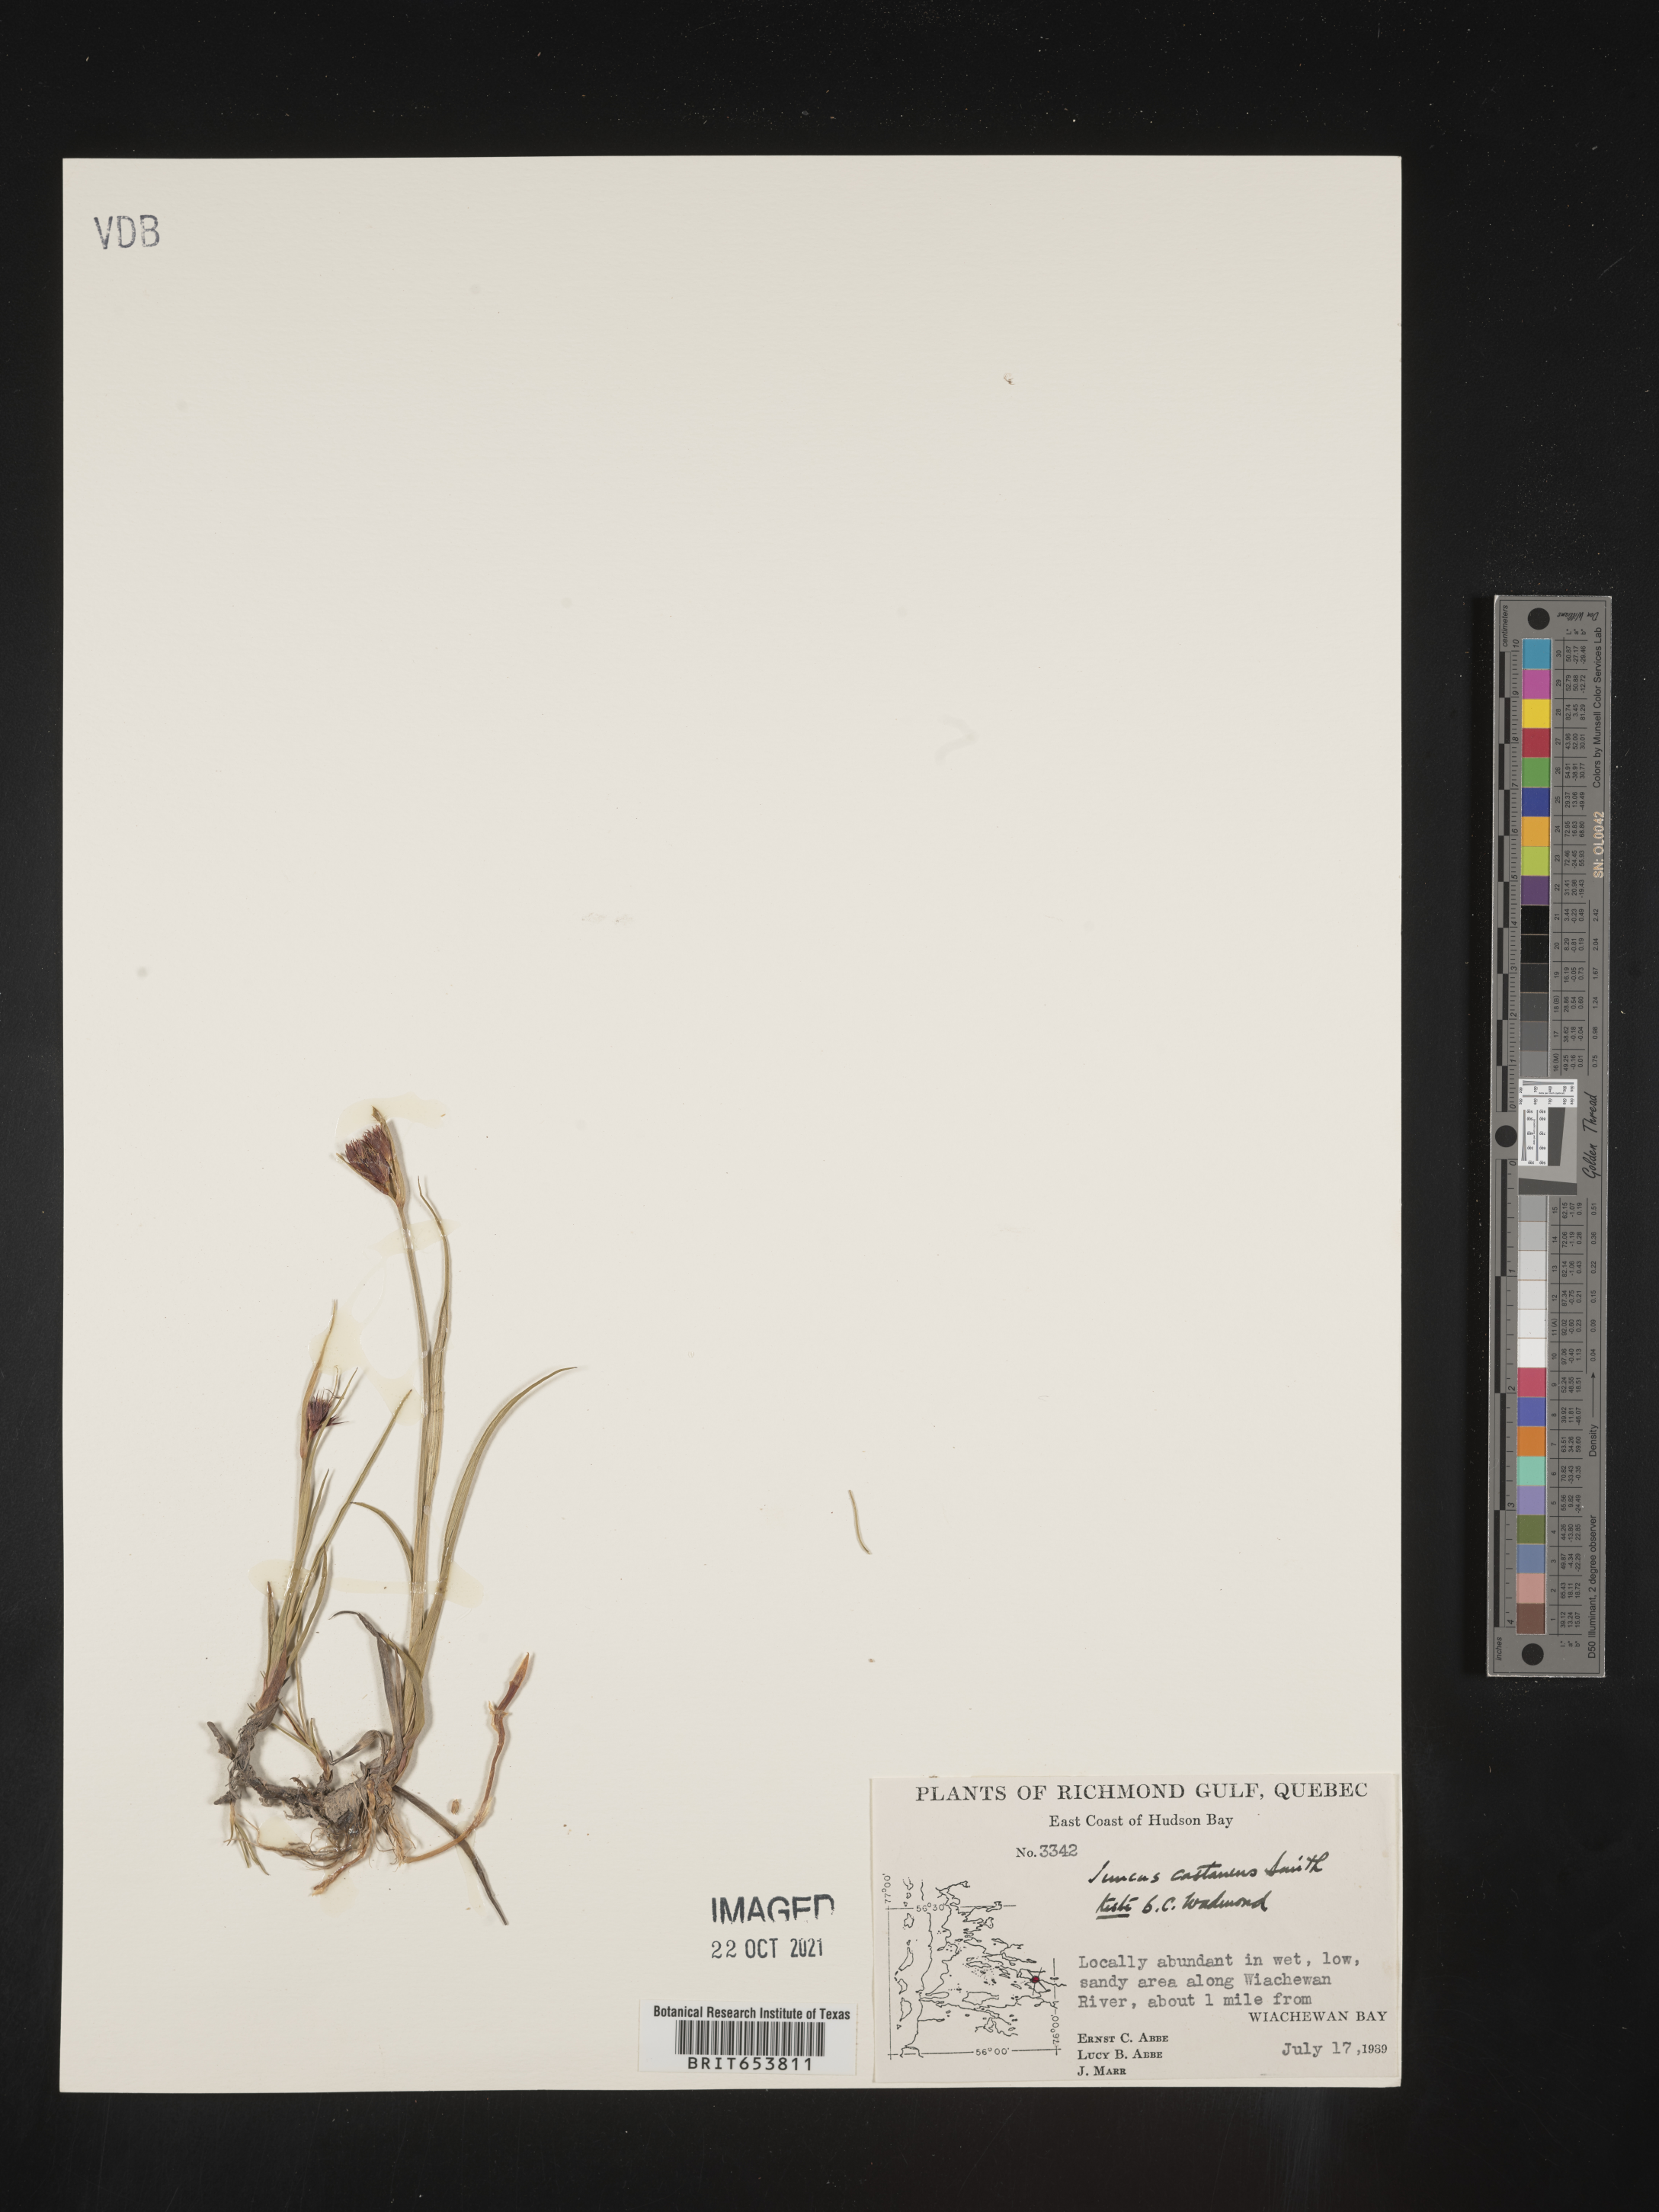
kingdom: Plantae
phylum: Tracheophyta
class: Liliopsida
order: Poales
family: Juncaceae
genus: Juncus
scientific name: Juncus
